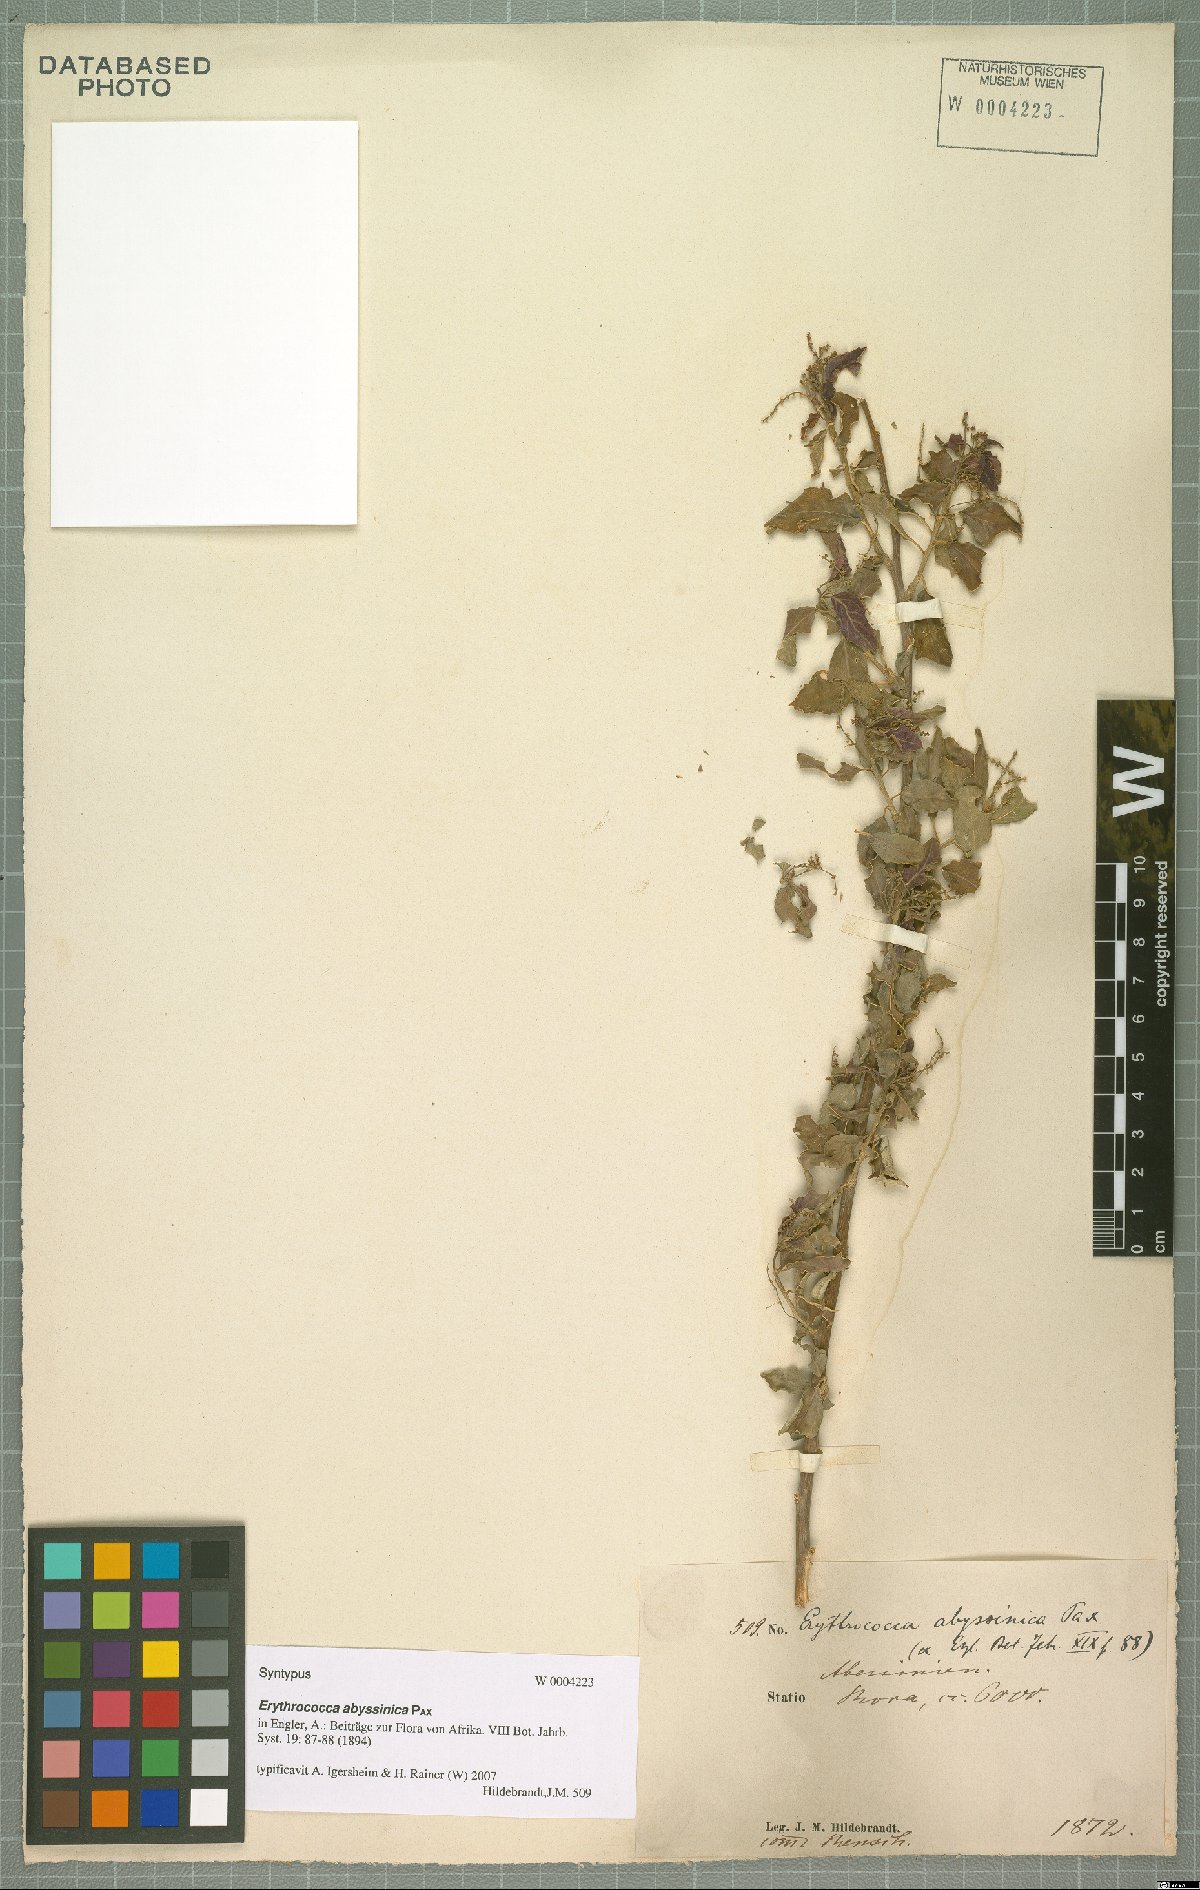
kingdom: Plantae
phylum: Tracheophyta
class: Magnoliopsida
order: Malpighiales
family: Euphorbiaceae
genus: Erythrococca
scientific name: Erythrococca abyssinica
